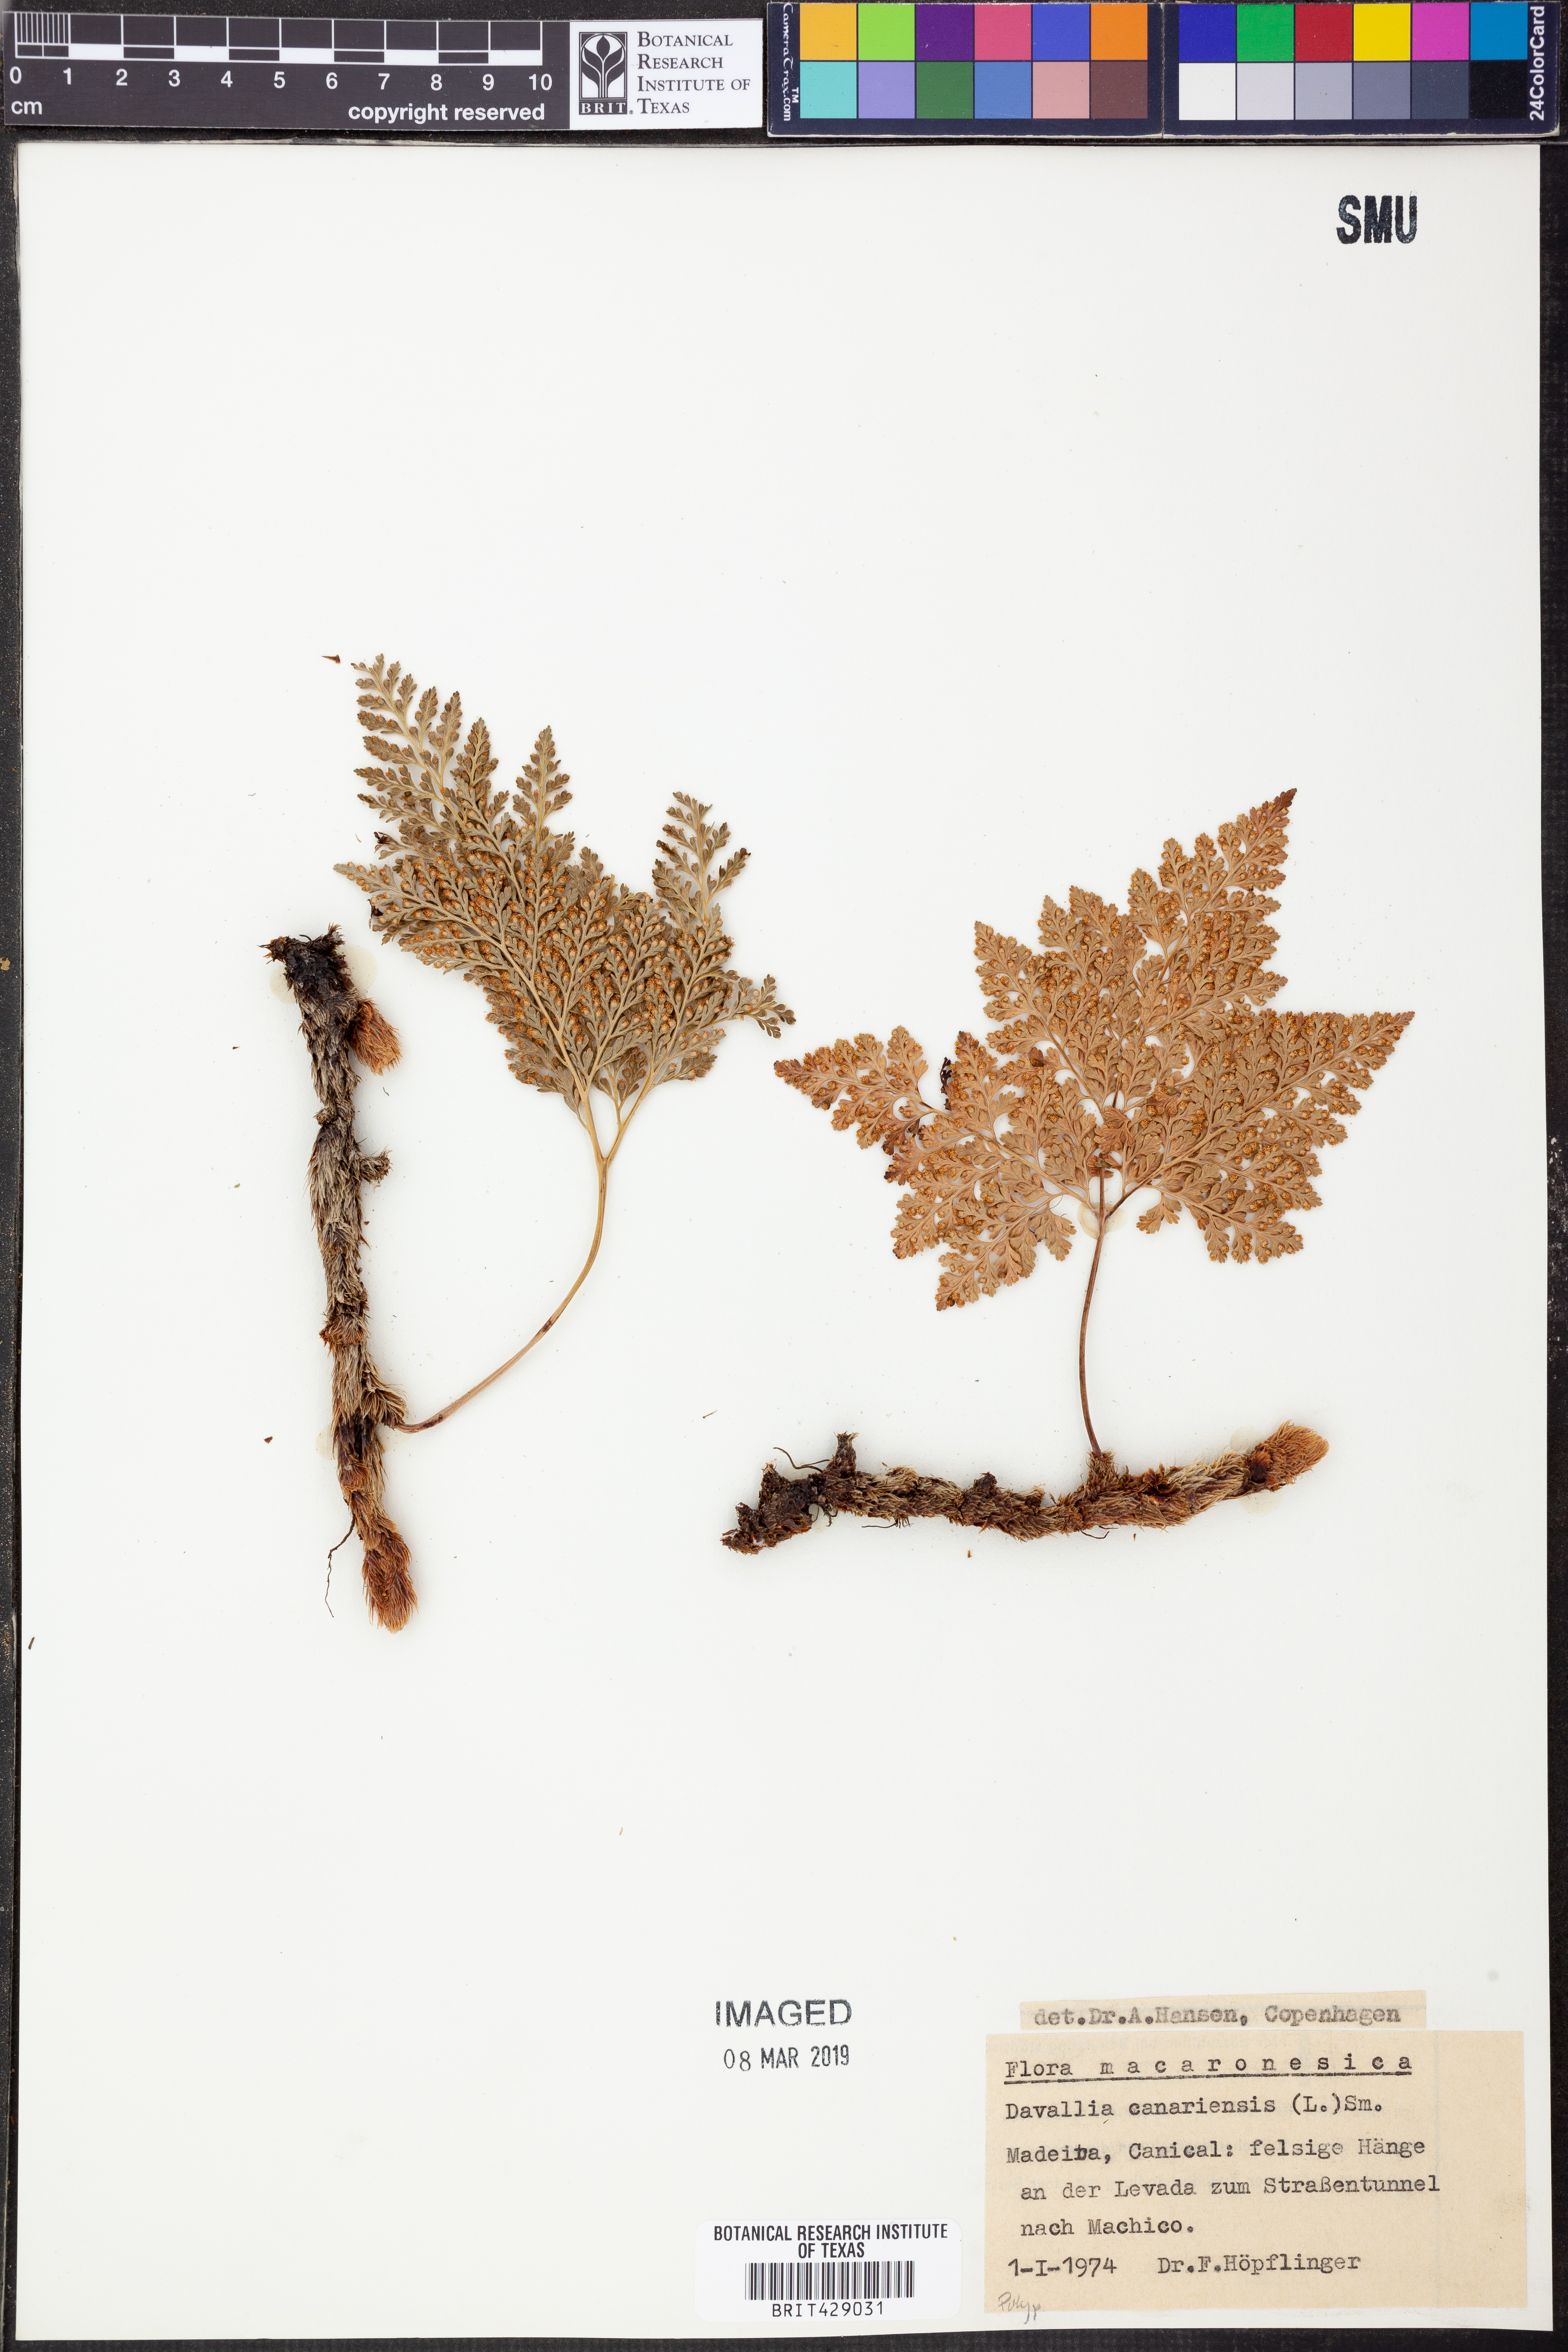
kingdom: Plantae
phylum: Tracheophyta
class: Polypodiopsida
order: Polypodiales
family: Davalliaceae
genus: Davallia
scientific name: Davallia canariensis
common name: Hare's-foot fern
